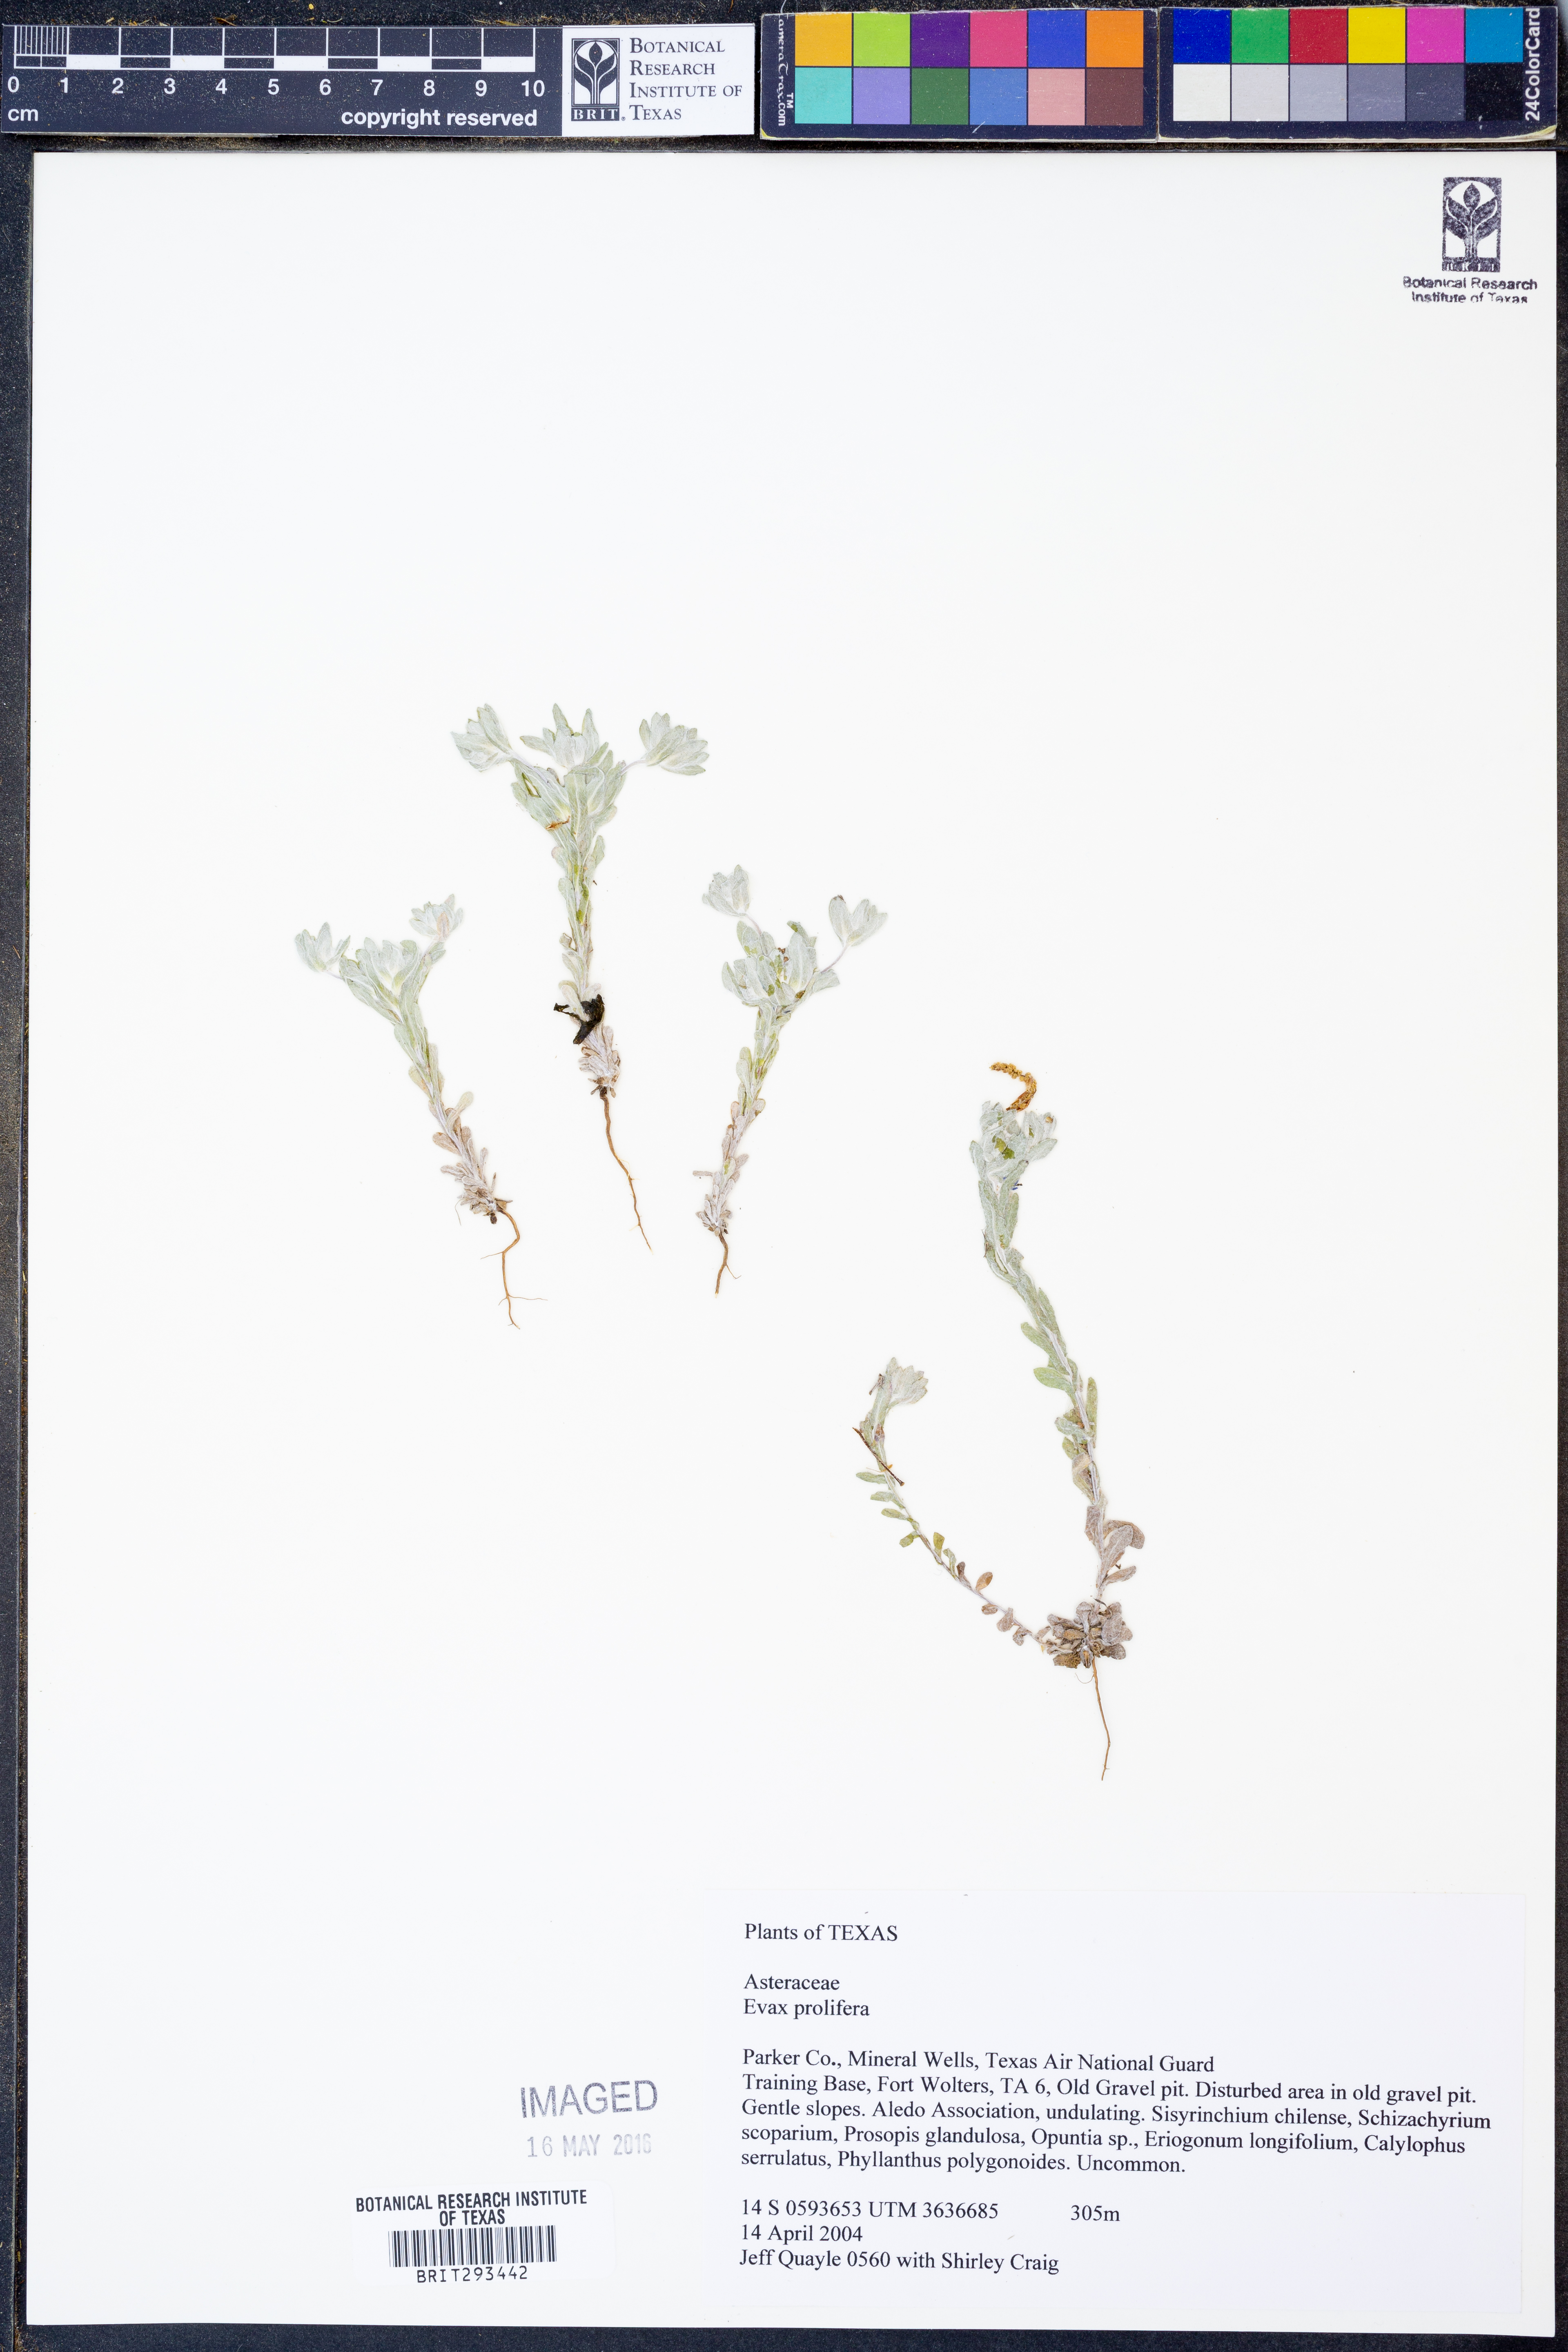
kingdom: Plantae
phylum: Tracheophyta
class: Magnoliopsida
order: Asterales
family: Asteraceae
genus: Diaperia
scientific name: Diaperia prolifera
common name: Big-head rabbit-tobacco
